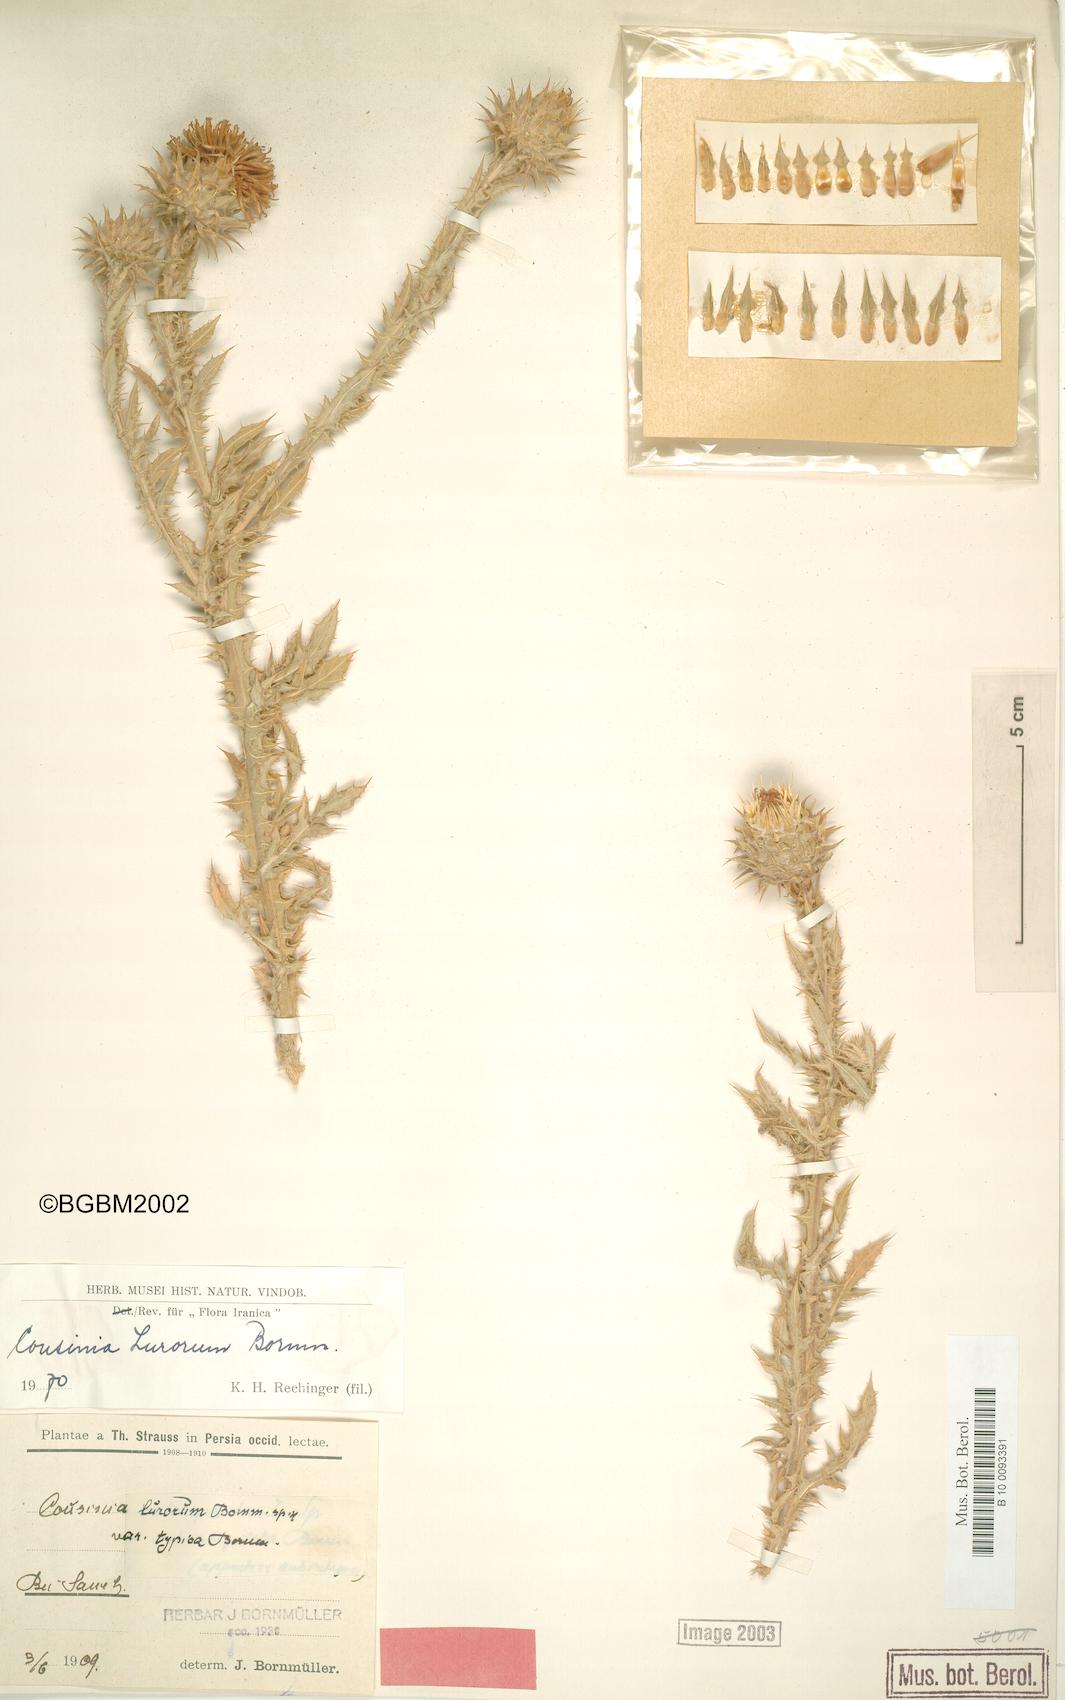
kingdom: Plantae
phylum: Tracheophyta
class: Magnoliopsida
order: Asterales
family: Asteraceae
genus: Cousinia
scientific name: Cousinia lurorum
